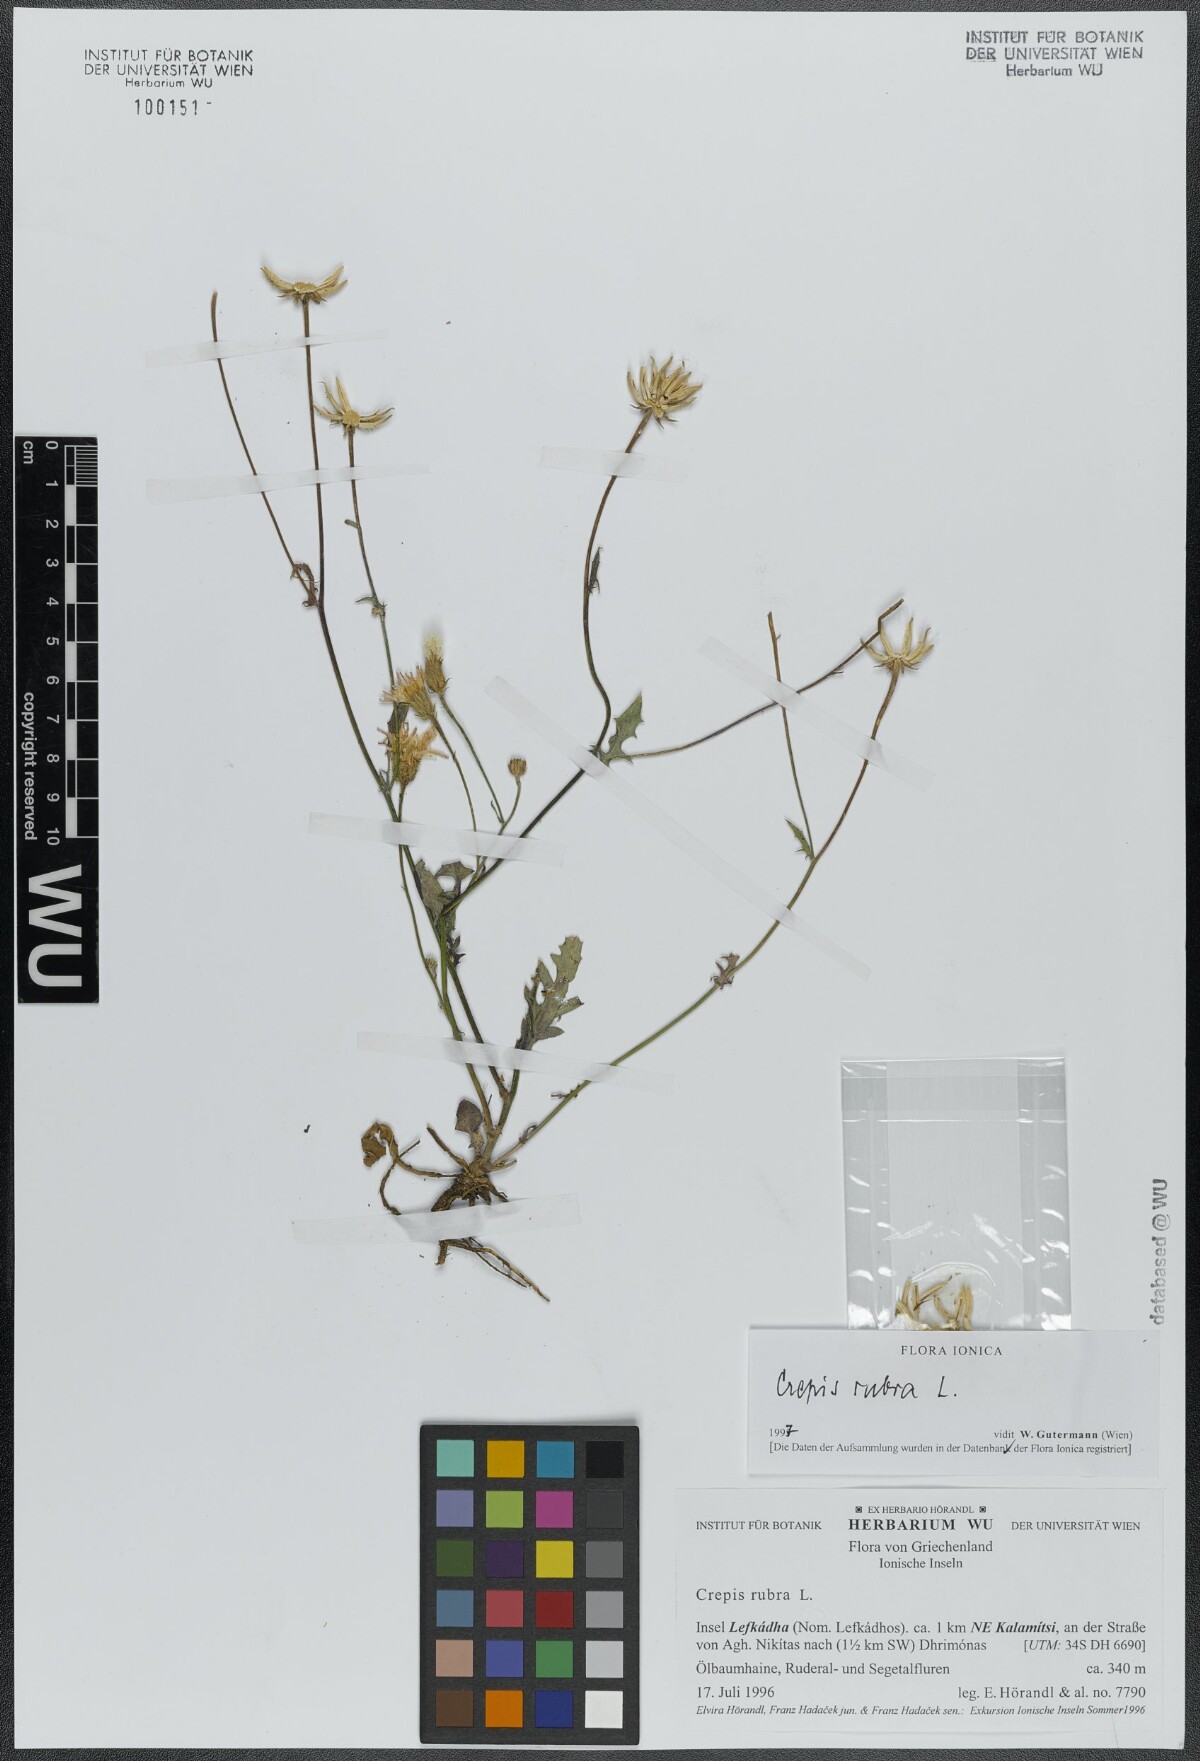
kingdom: Plantae
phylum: Tracheophyta
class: Magnoliopsida
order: Asterales
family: Asteraceae
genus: Crepis
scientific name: Crepis rubra
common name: Pink hawk's-beard
